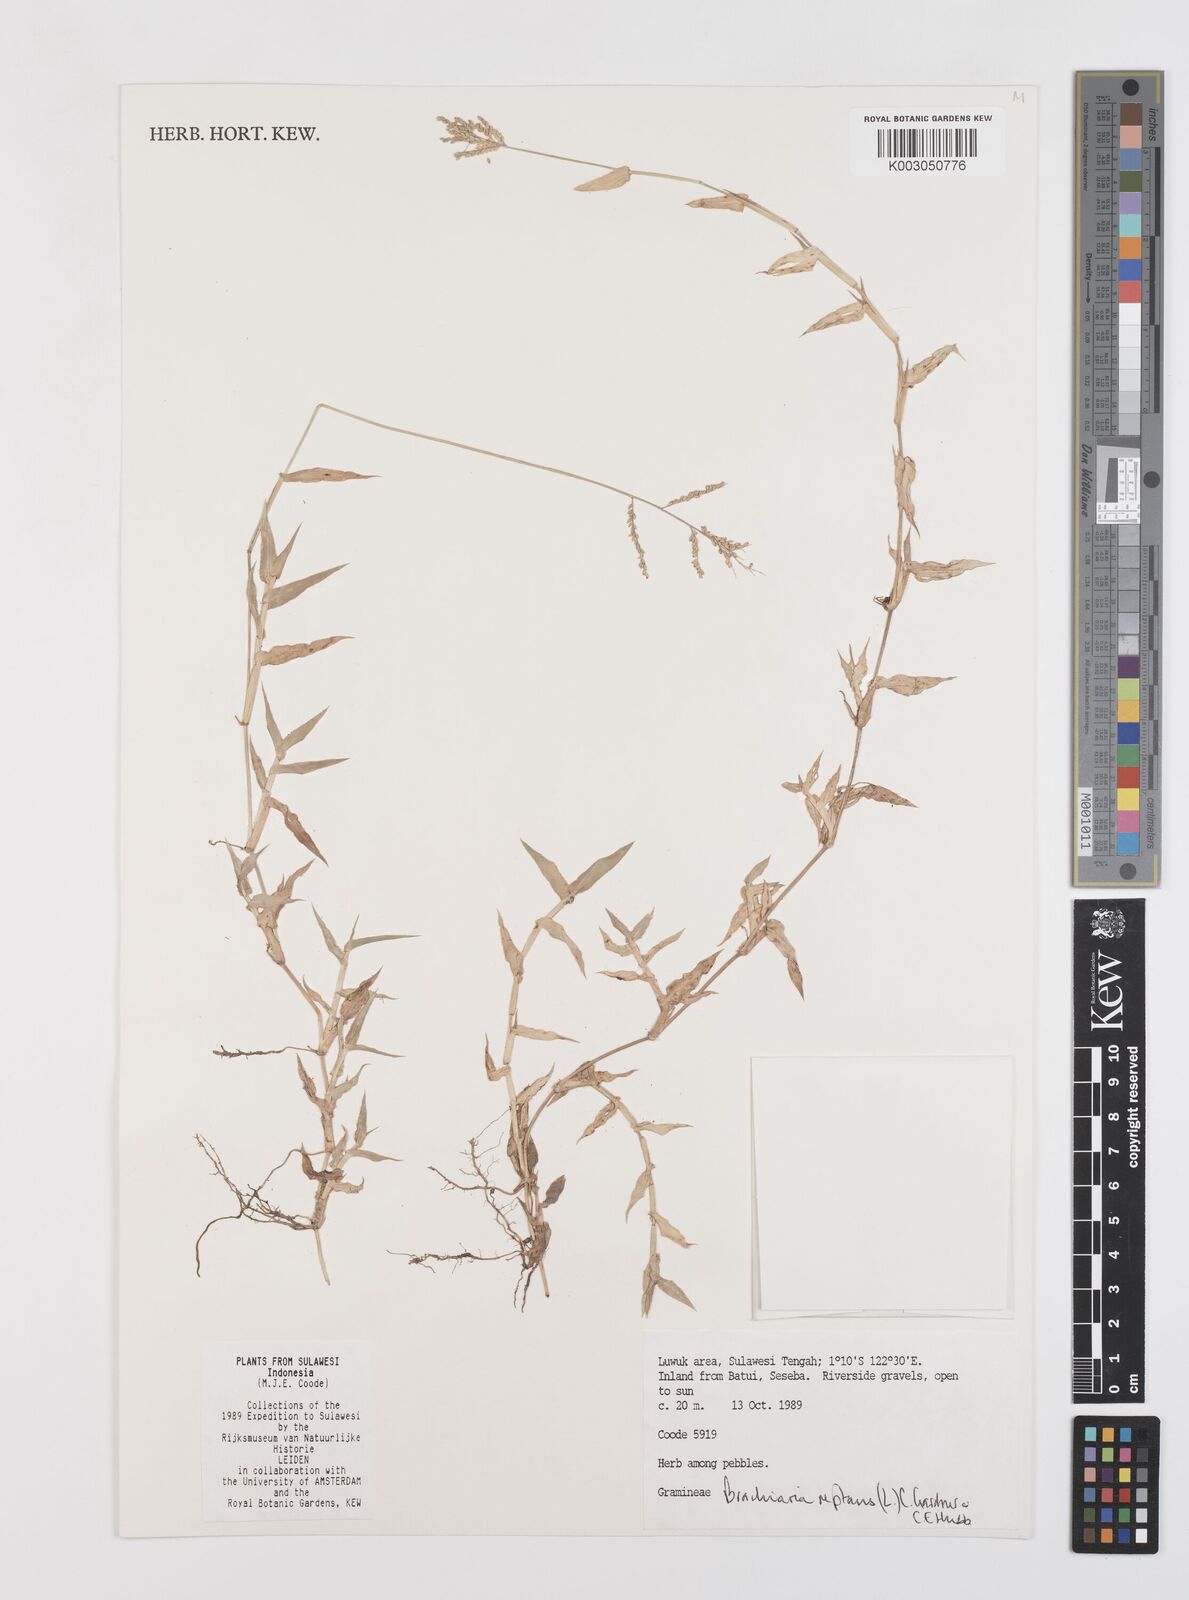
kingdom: Plantae
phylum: Tracheophyta
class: Liliopsida
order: Poales
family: Poaceae
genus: Urochloa
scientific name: Urochloa reptans
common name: Sprawling signalgrass
